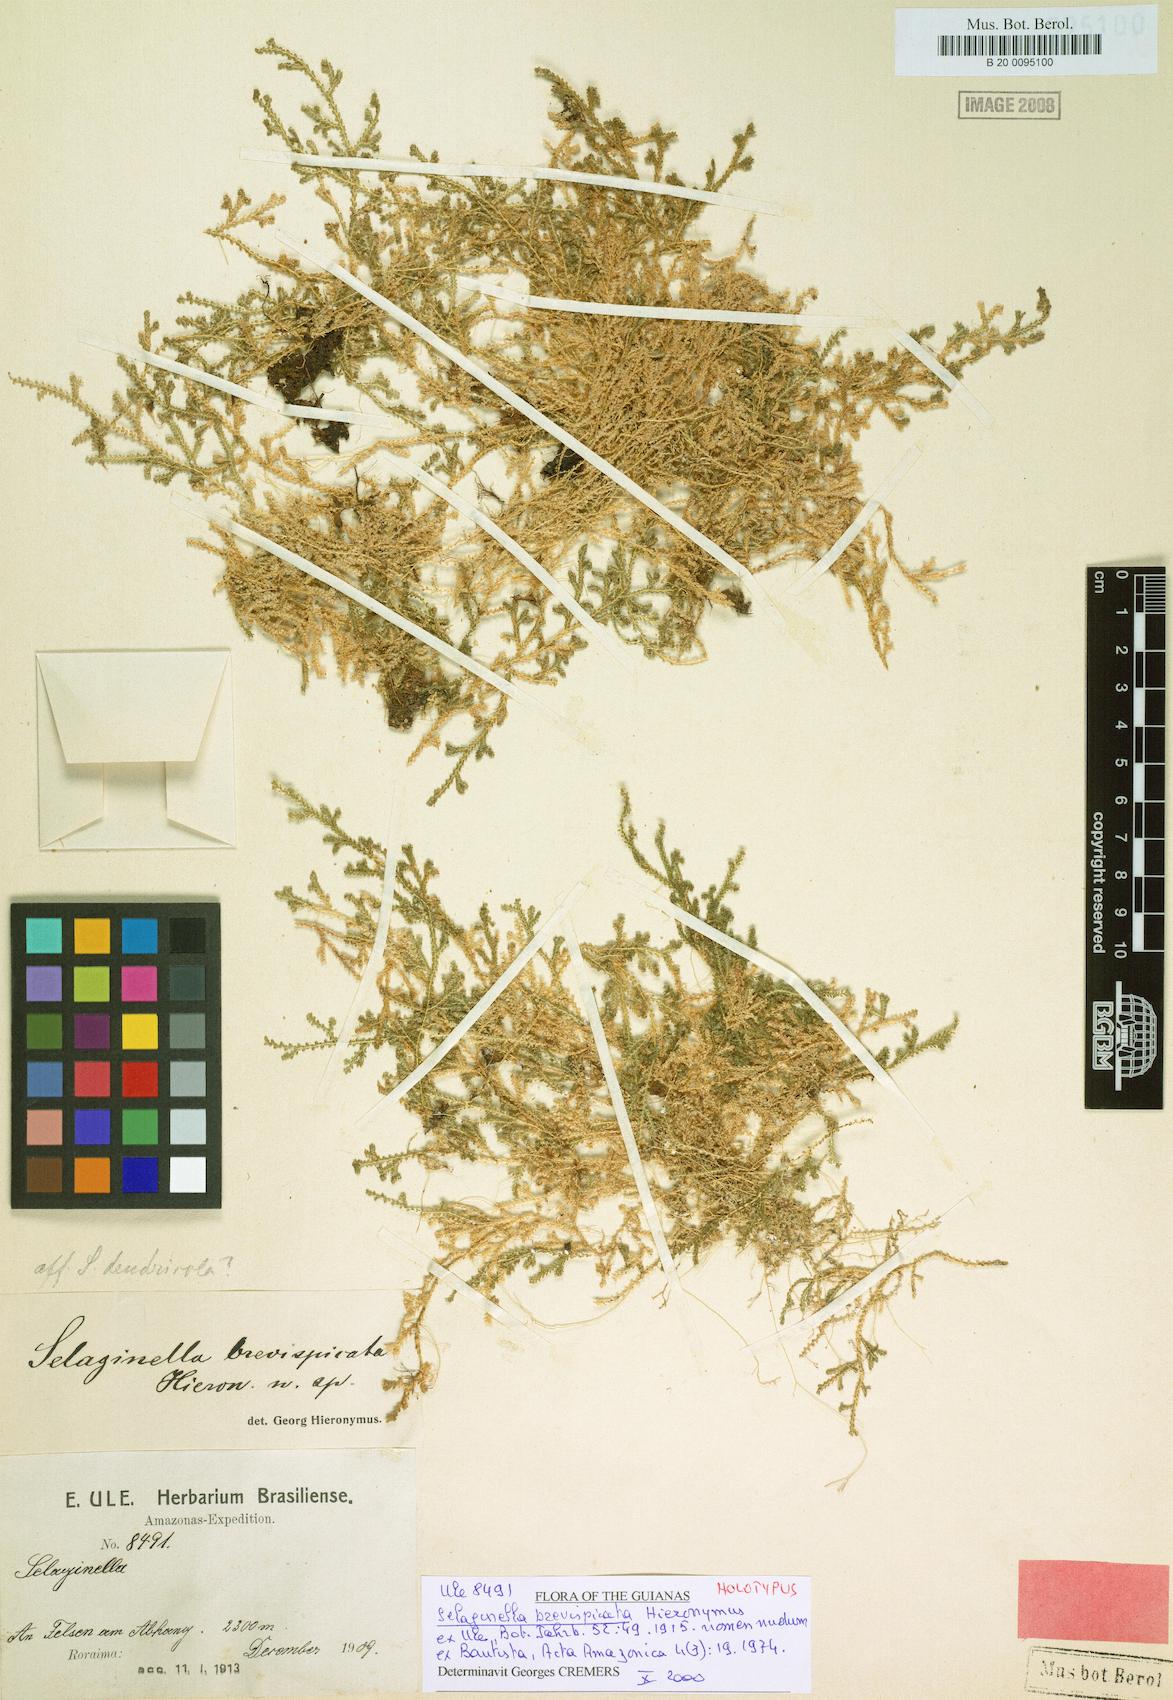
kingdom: Plantae
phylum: Tracheophyta
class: Lycopodiopsida
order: Selaginellales
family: Selaginellaceae
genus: Selaginella
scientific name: Selaginella rhodostachya
